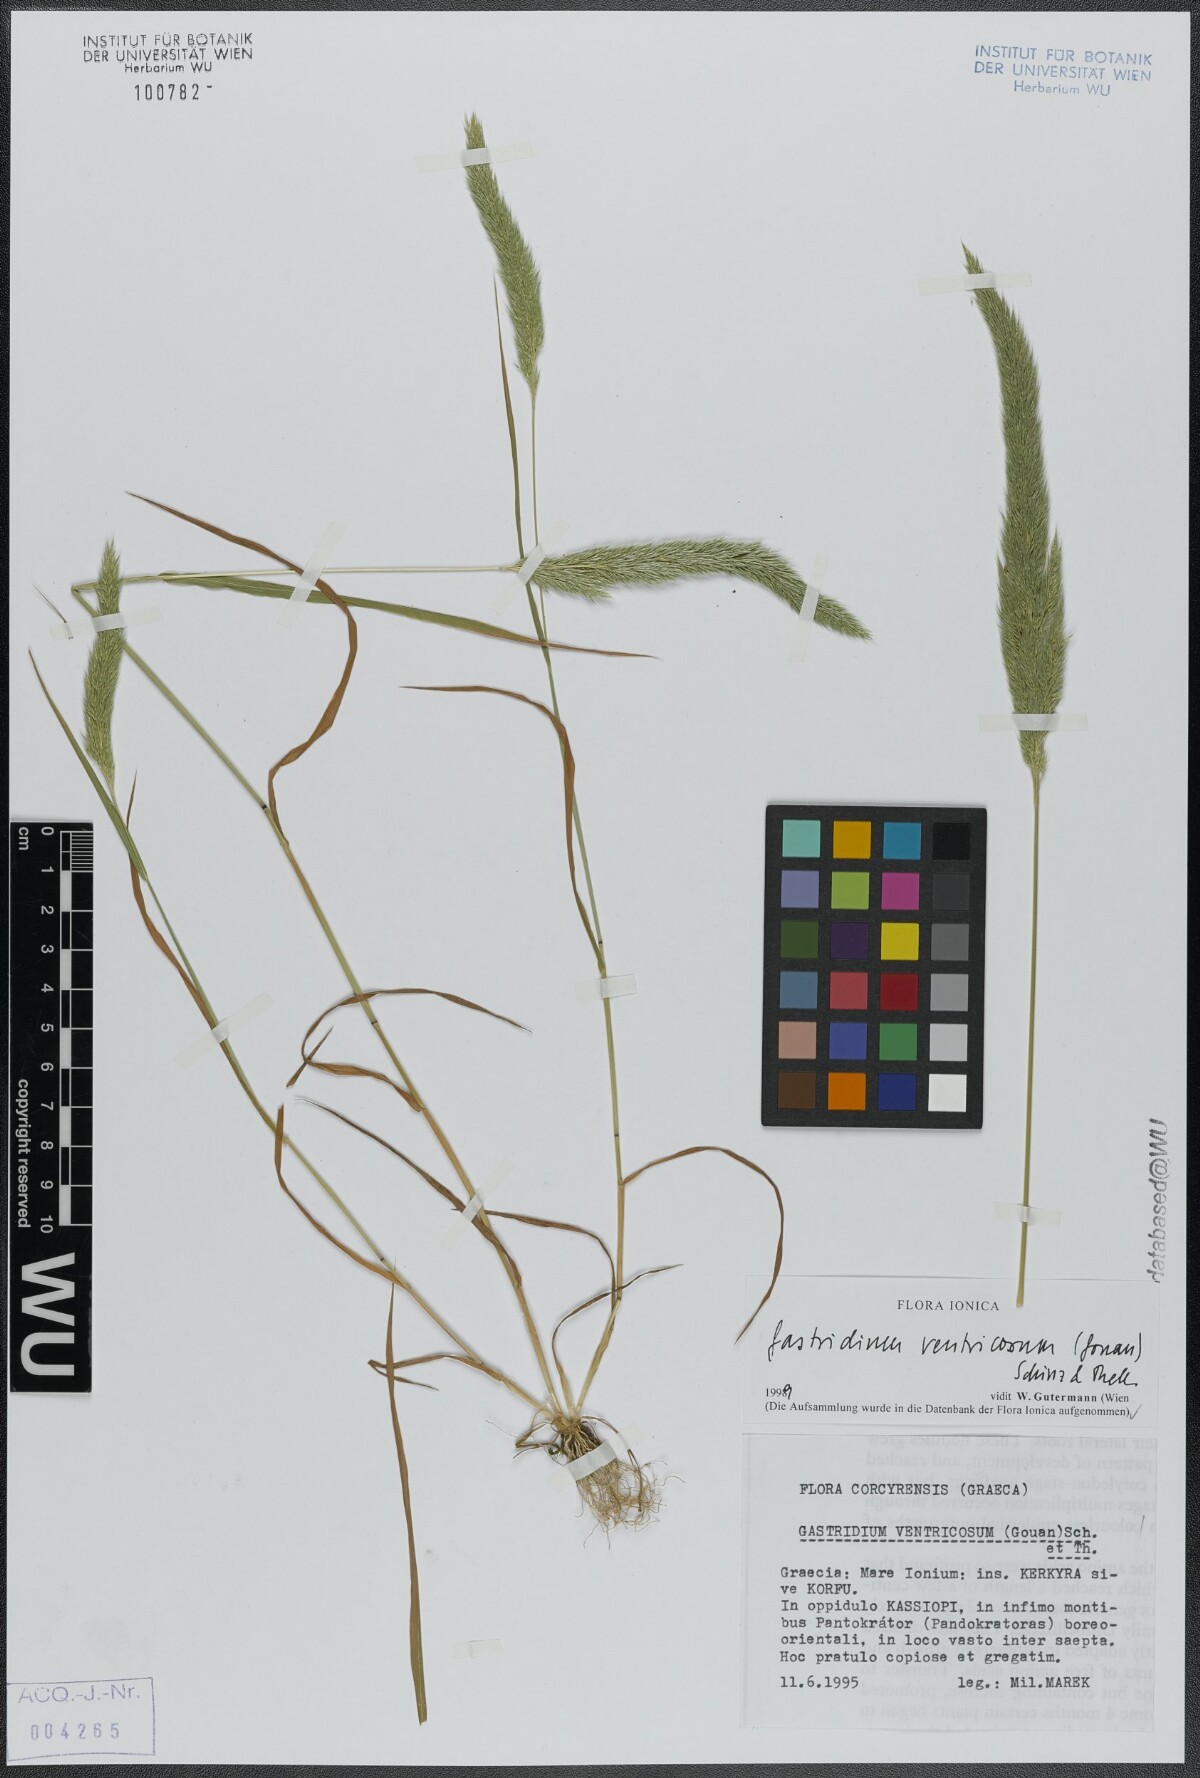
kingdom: Plantae
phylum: Tracheophyta
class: Liliopsida
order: Poales
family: Poaceae
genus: Gastridium
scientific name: Gastridium ventricosum
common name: Nit-grass
